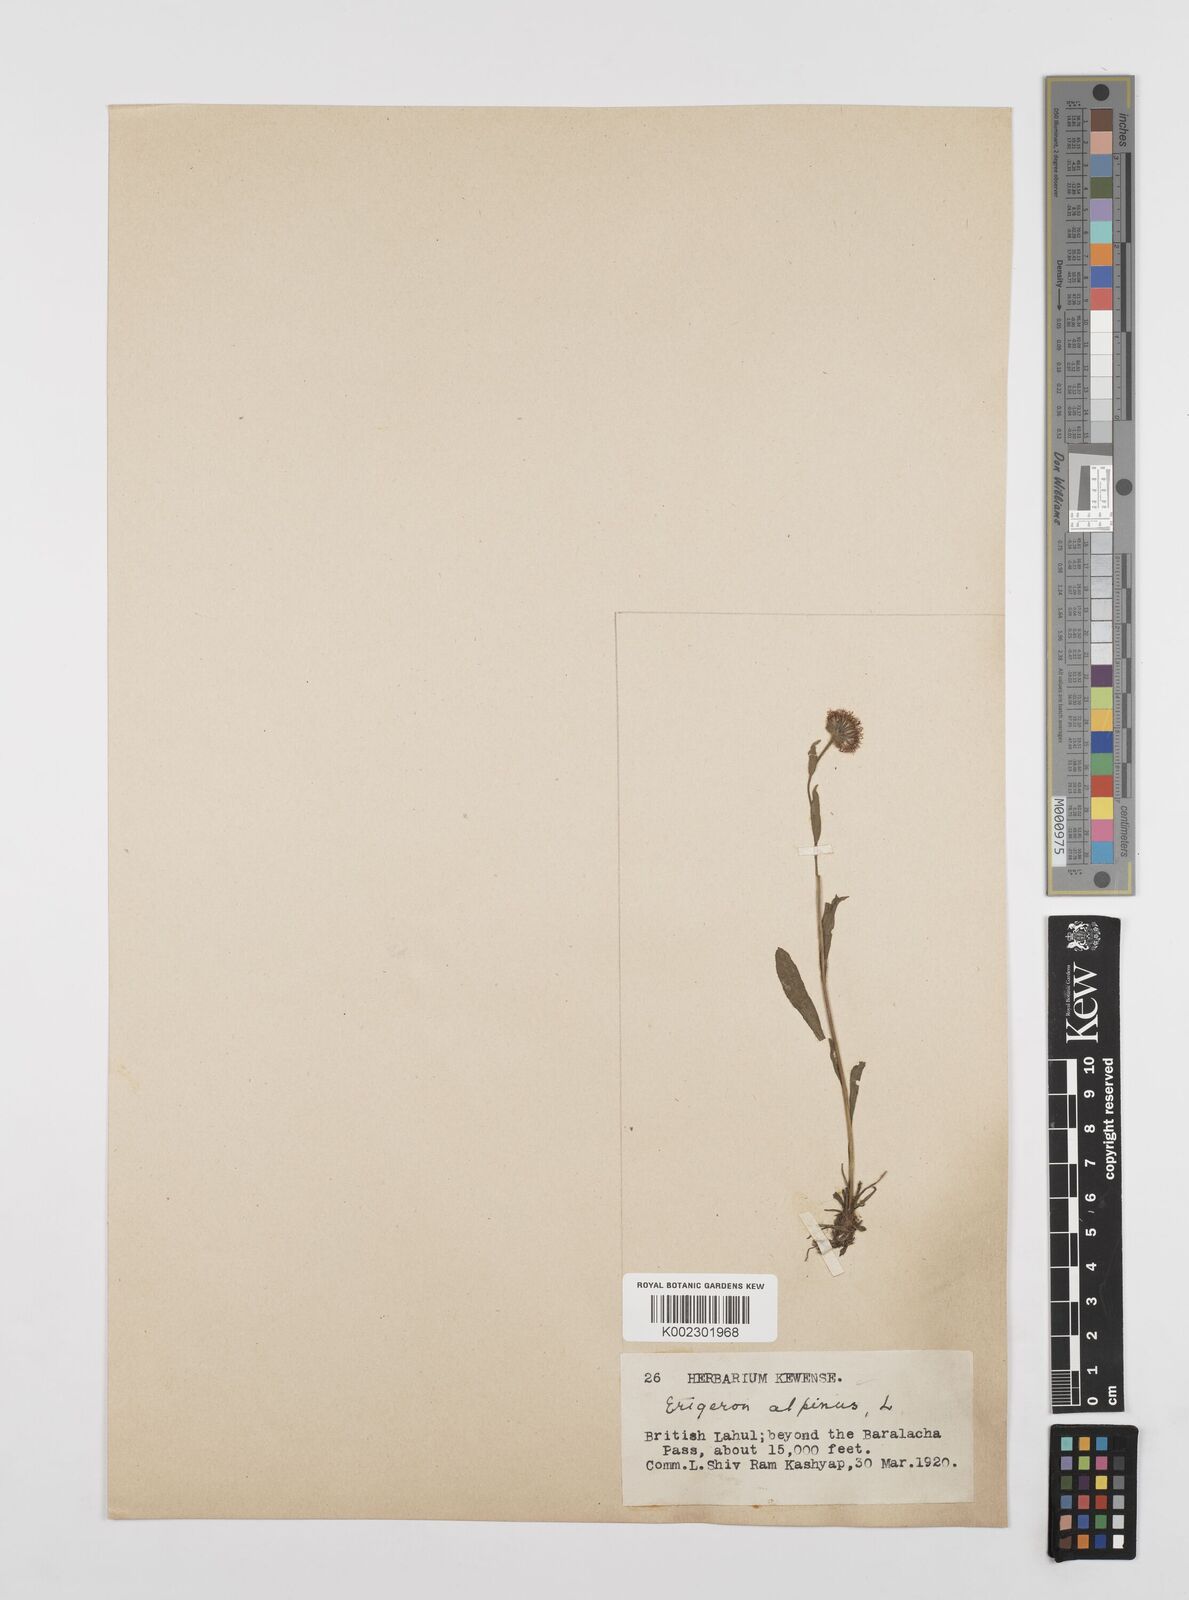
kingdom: Plantae
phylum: Tracheophyta
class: Magnoliopsida
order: Asterales
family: Asteraceae
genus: Erigeron
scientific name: Erigeron alpinus
